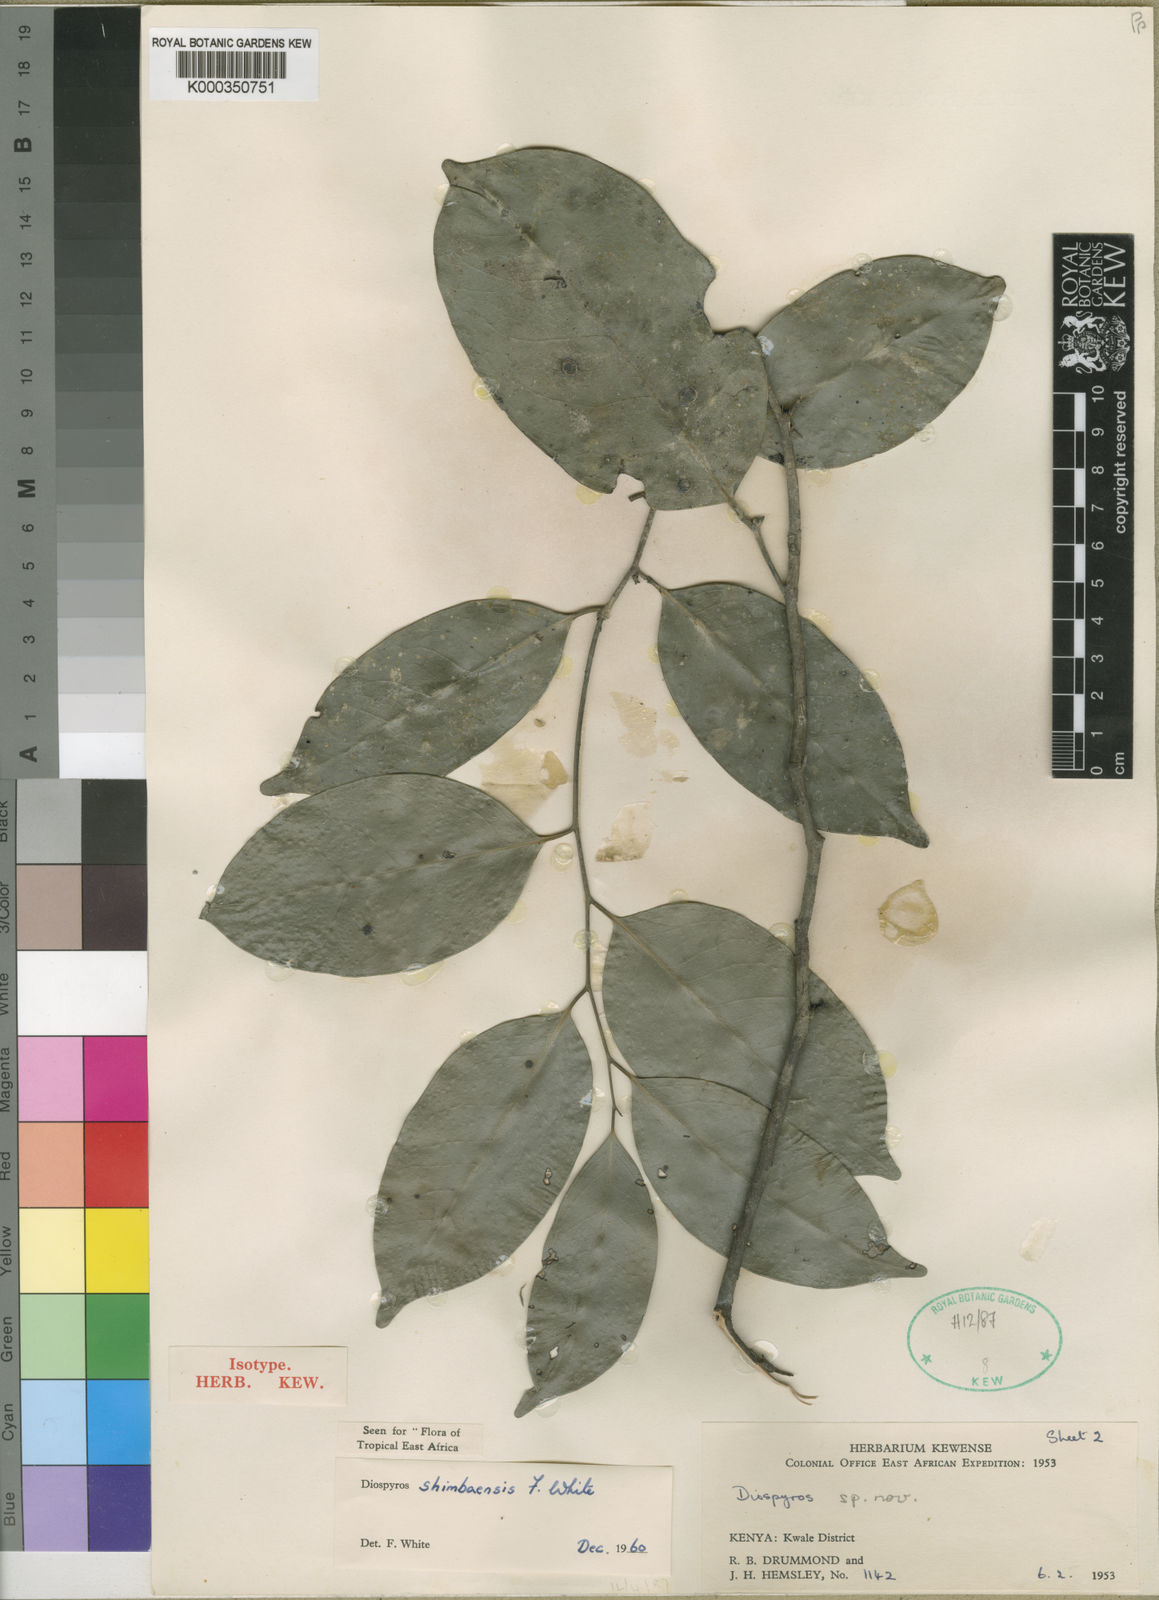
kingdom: Plantae
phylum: Tracheophyta
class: Magnoliopsida
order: Ericales
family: Ebenaceae
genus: Diospyros
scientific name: Diospyros shimbaensis
